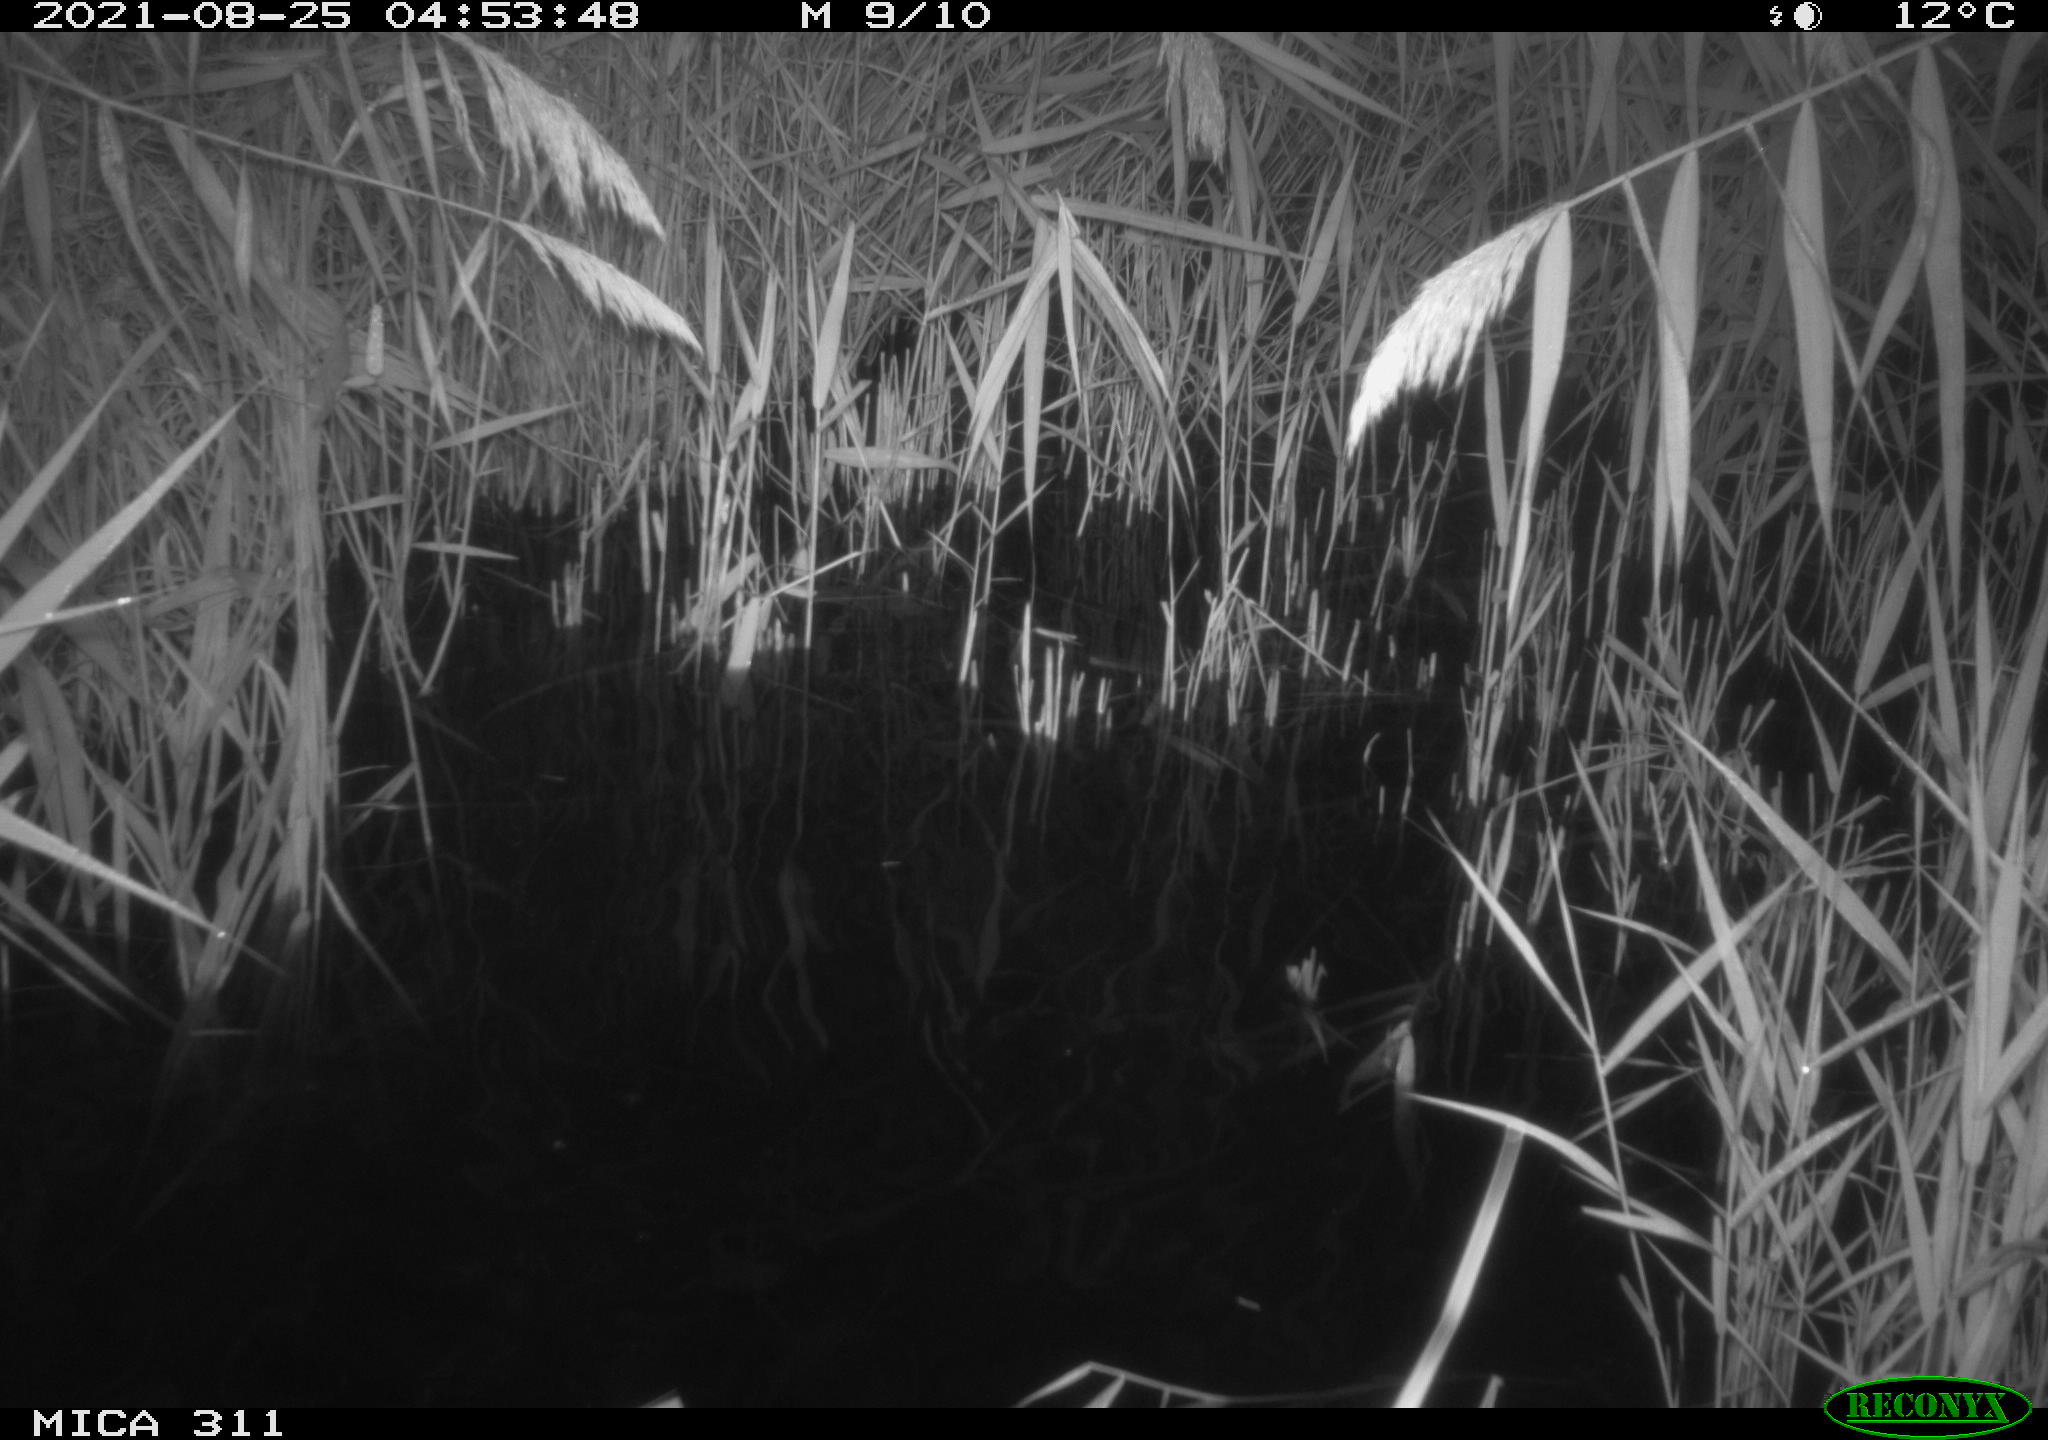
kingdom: Animalia
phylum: Chordata
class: Mammalia
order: Rodentia
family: Muridae
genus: Rattus
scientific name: Rattus norvegicus
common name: Brown rat
